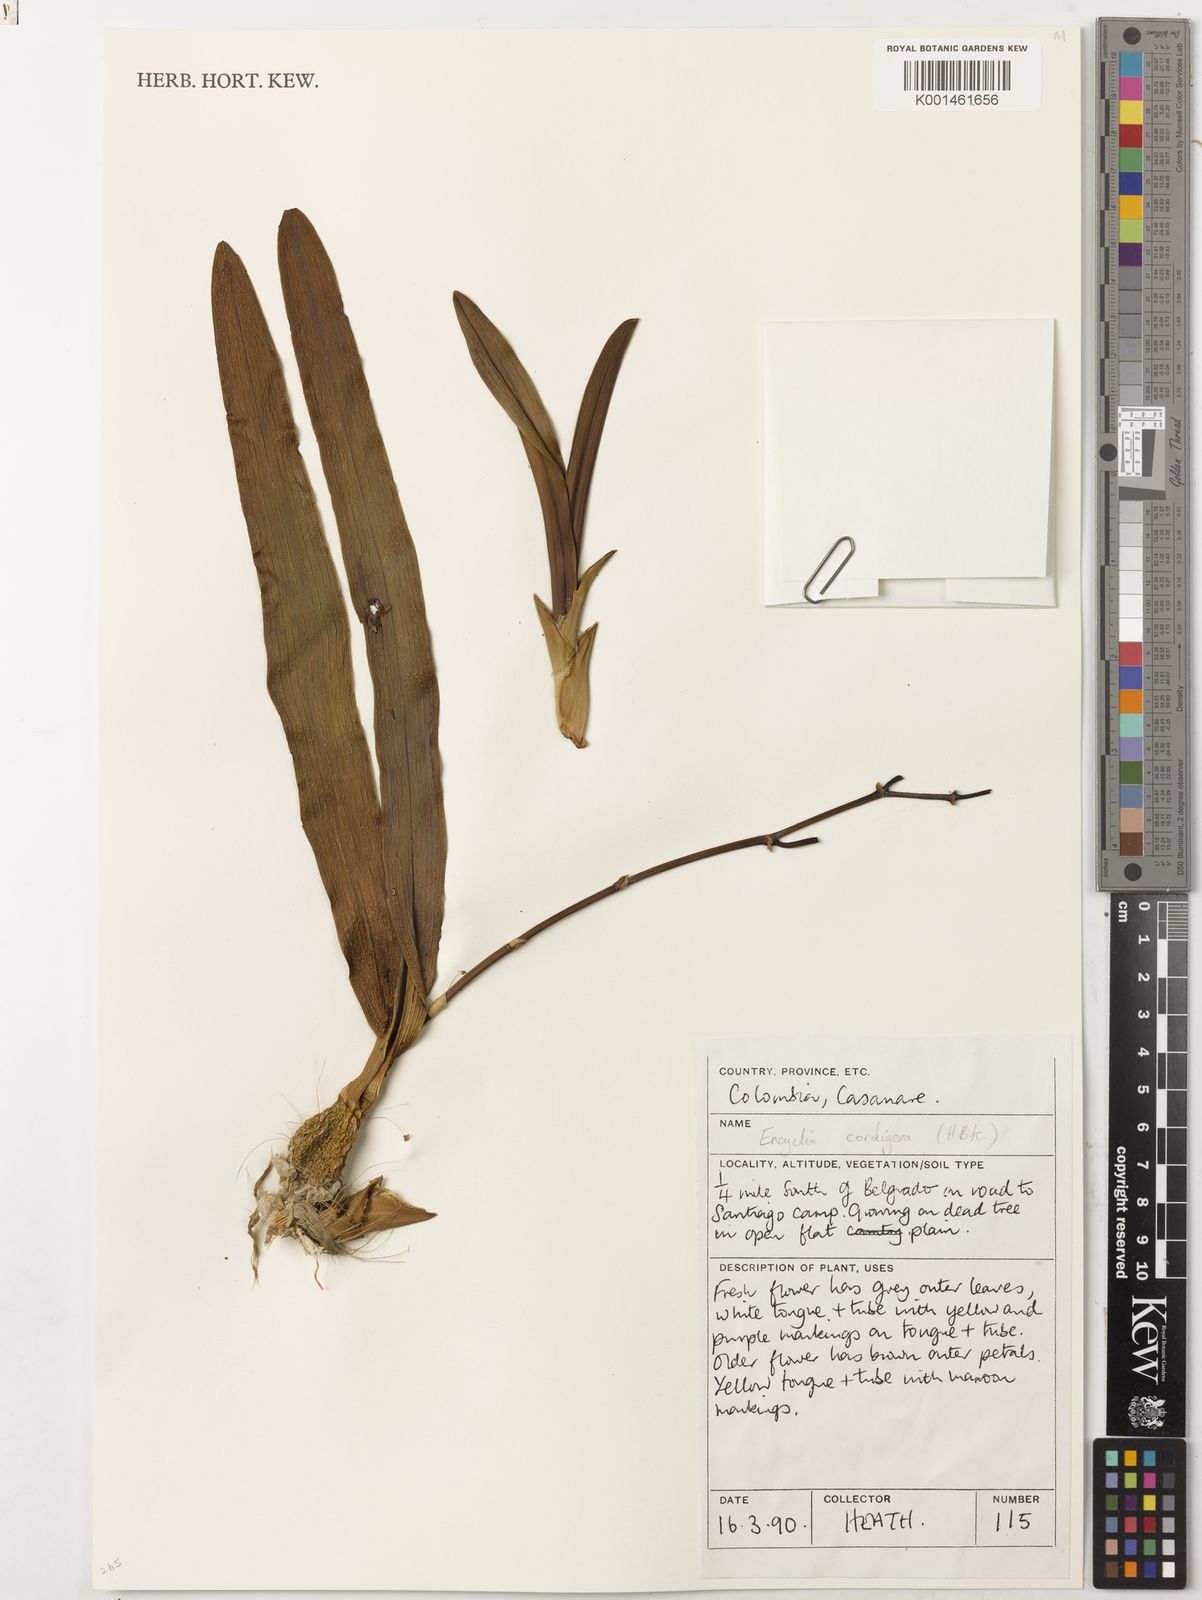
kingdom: Plantae
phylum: Tracheophyta
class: Liliopsida
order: Asparagales
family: Orchidaceae
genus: Encyclia
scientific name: Encyclia cordigera
